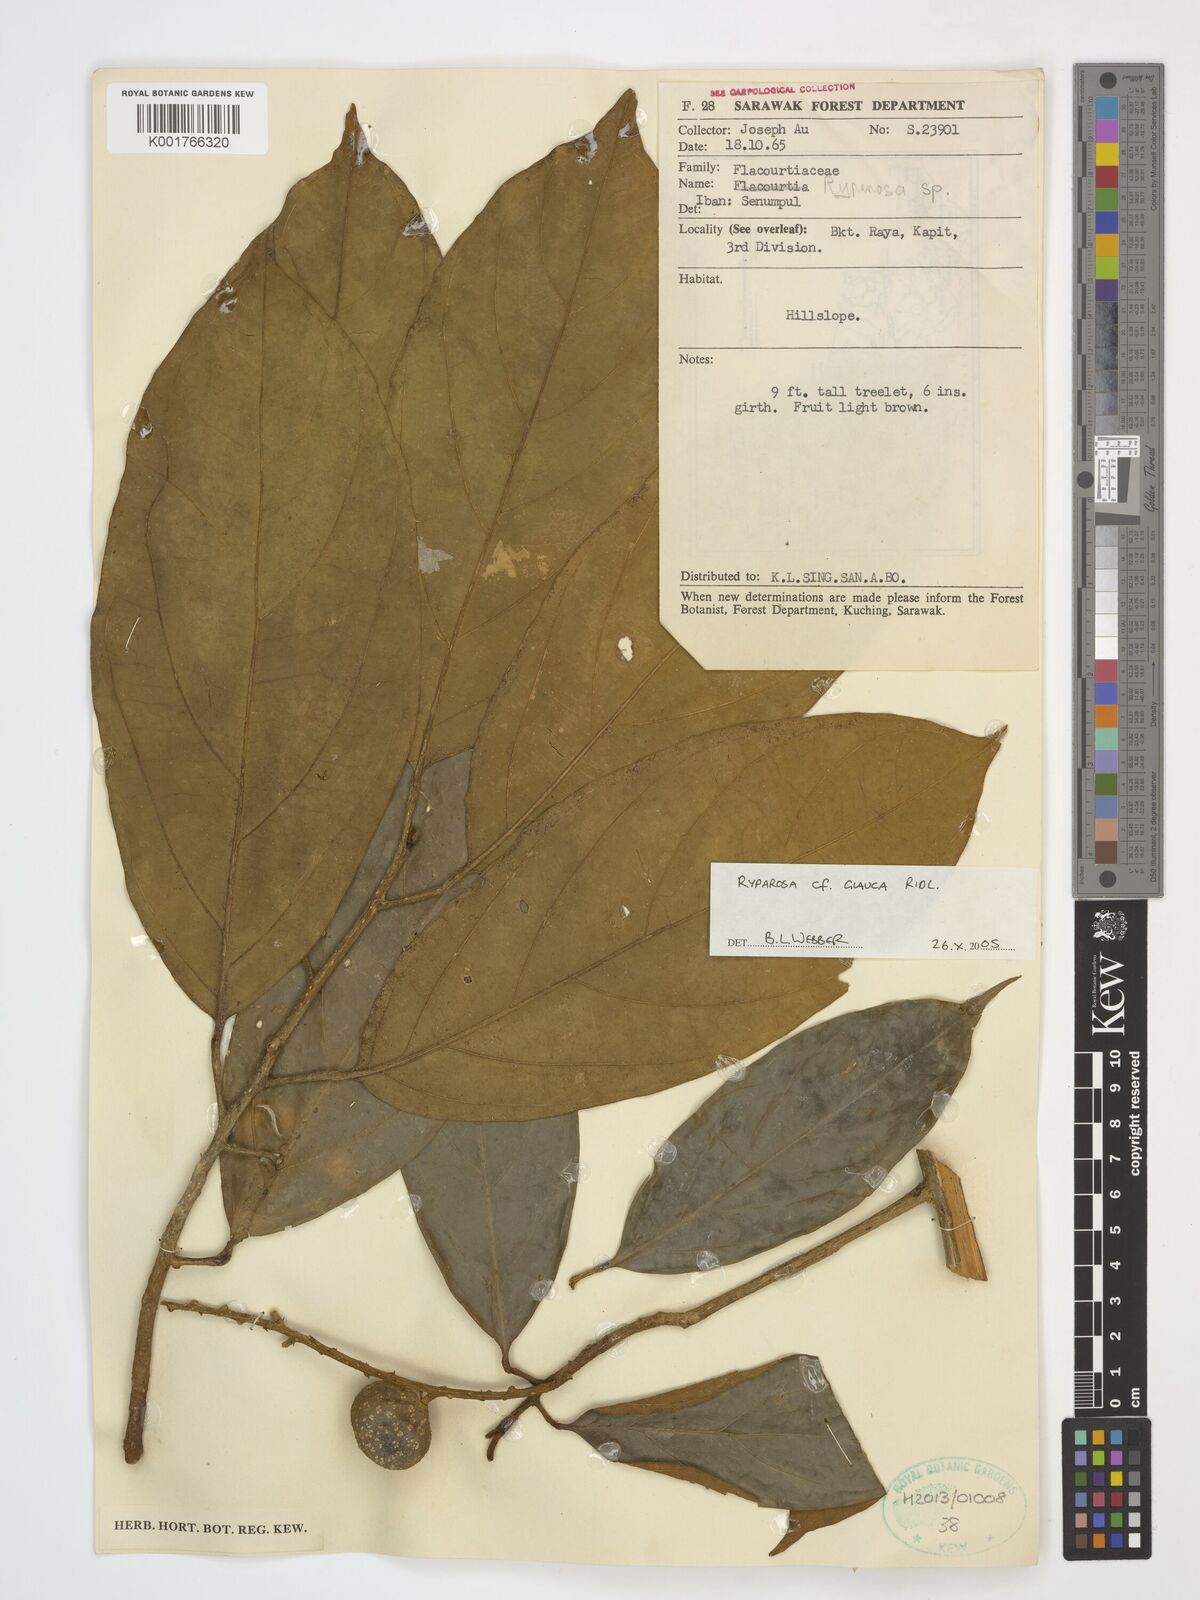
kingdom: Plantae
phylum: Tracheophyta
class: Magnoliopsida
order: Malpighiales
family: Achariaceae
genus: Ryparosa
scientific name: Ryparosa glauca
